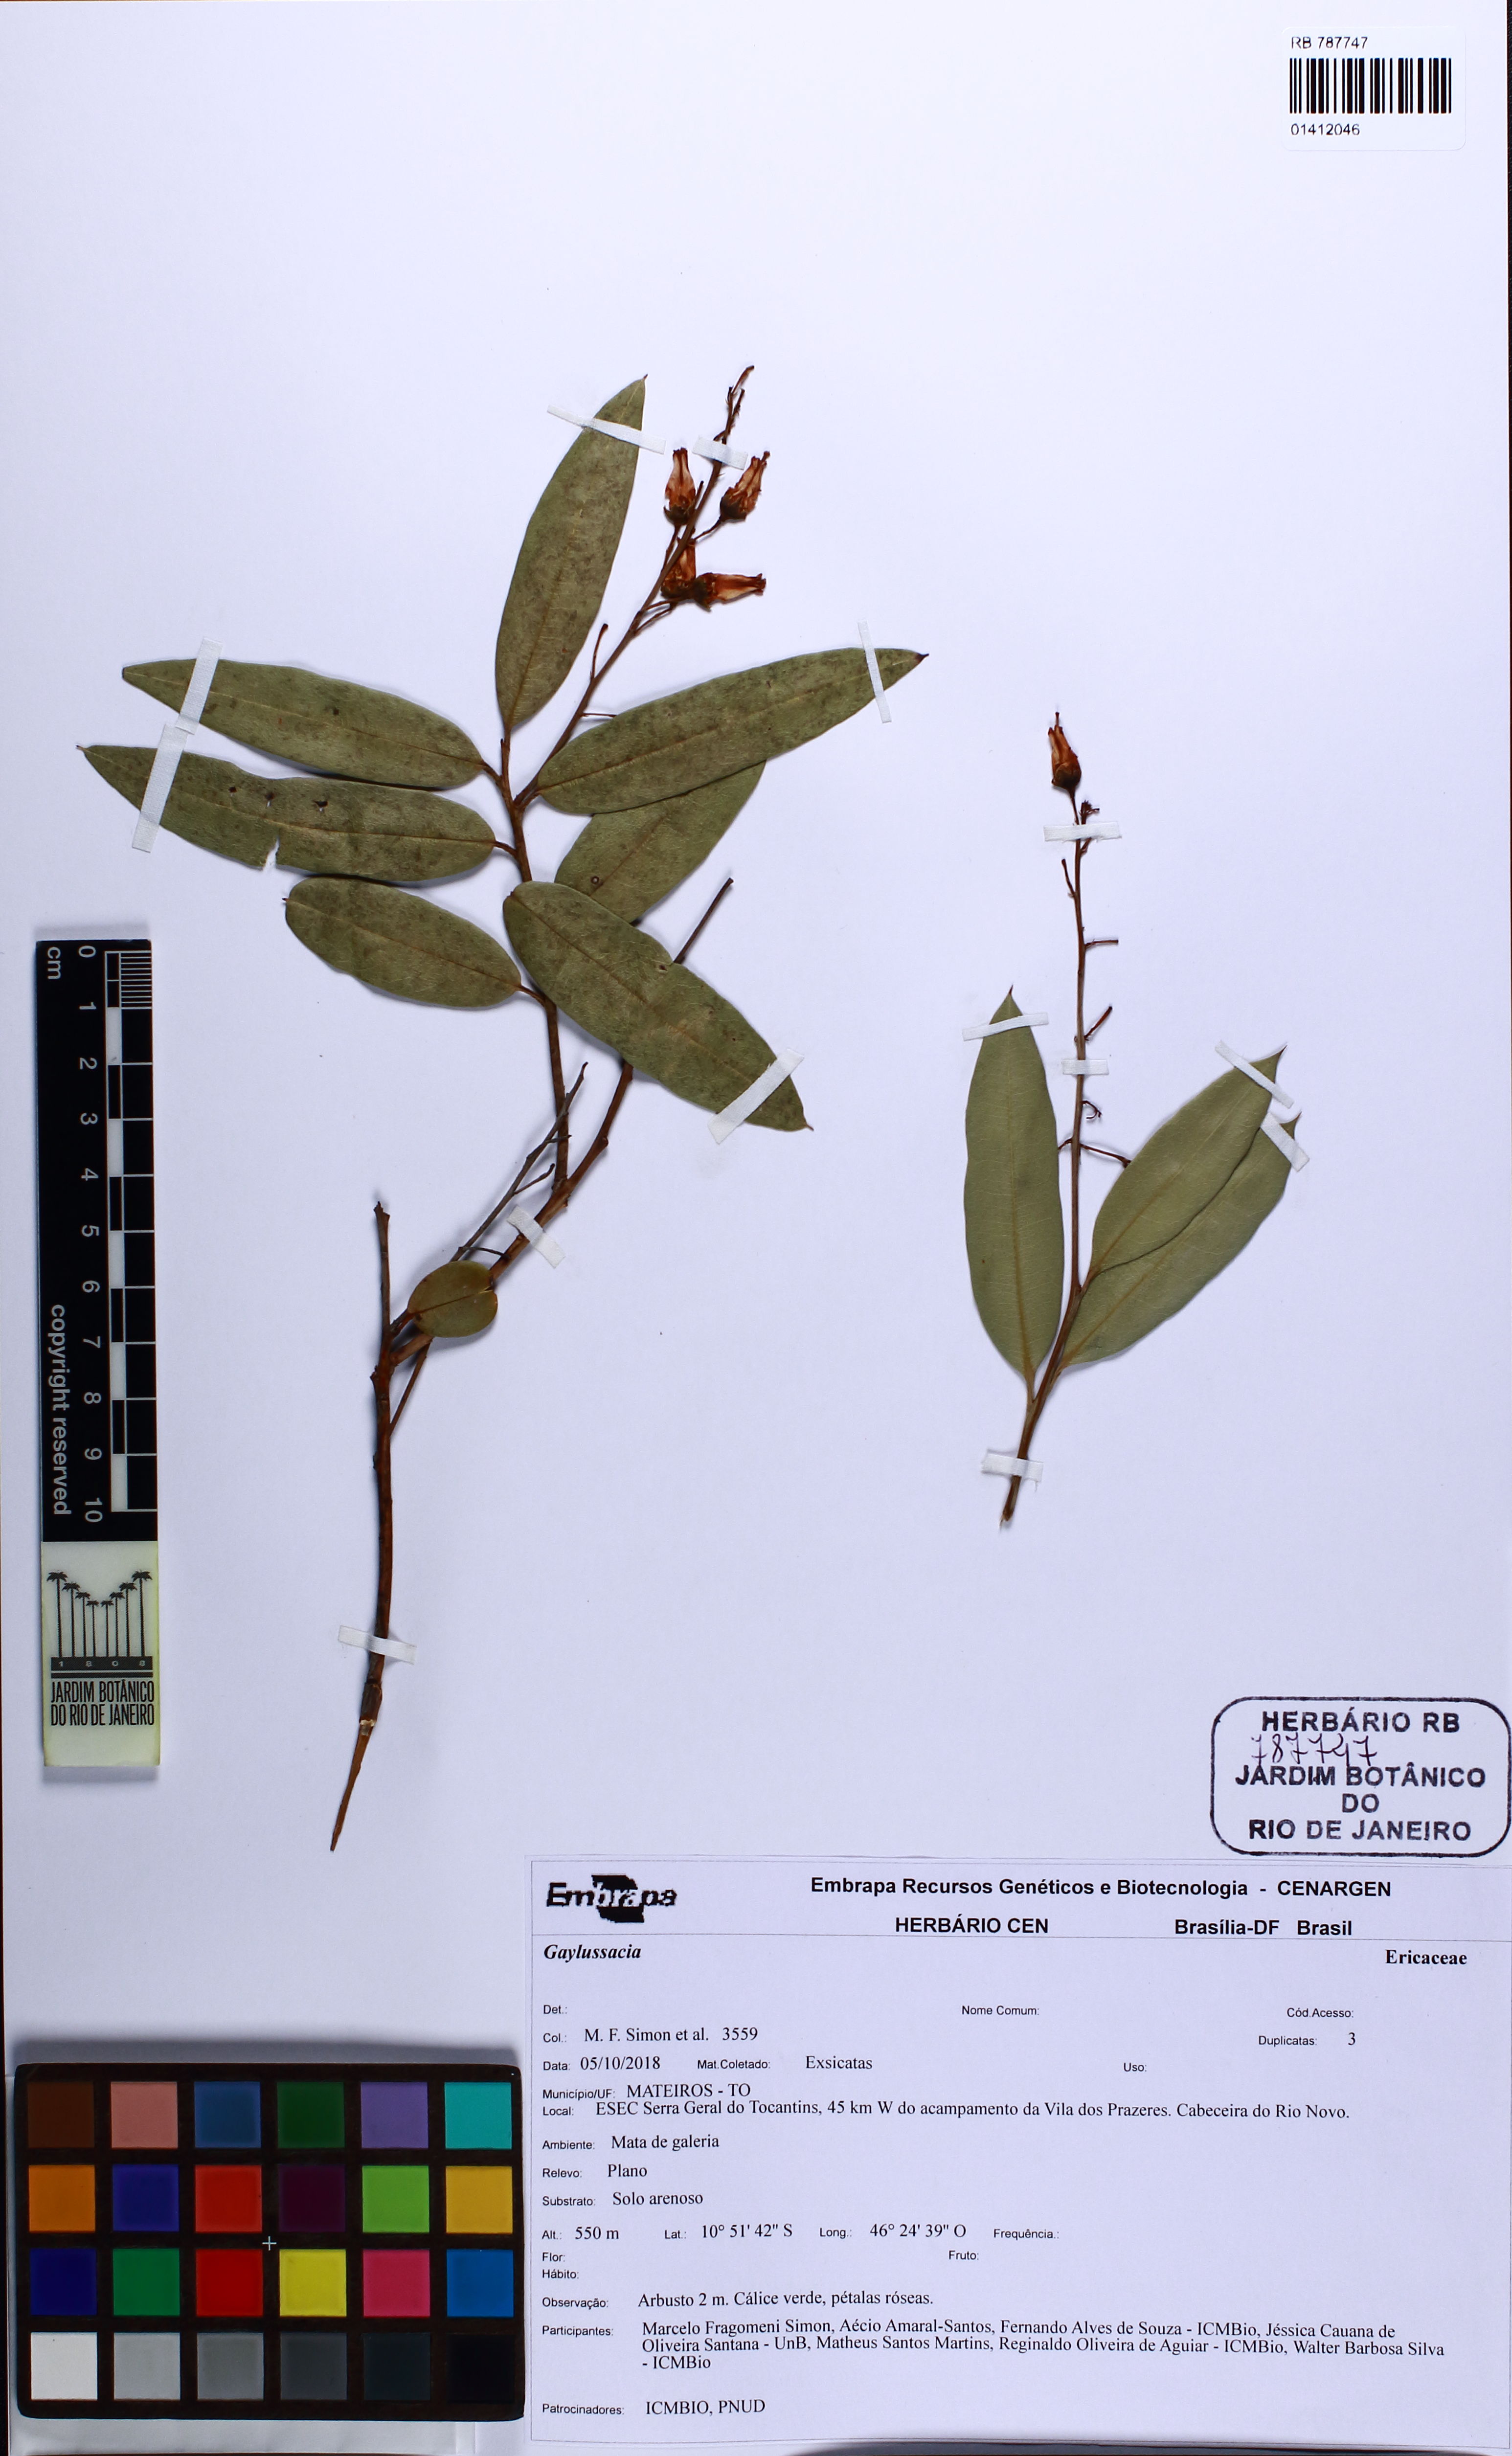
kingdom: Plantae
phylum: Tracheophyta
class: Magnoliopsida
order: Ericales
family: Ericaceae
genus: Gaylussacia
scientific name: Gaylussacia
